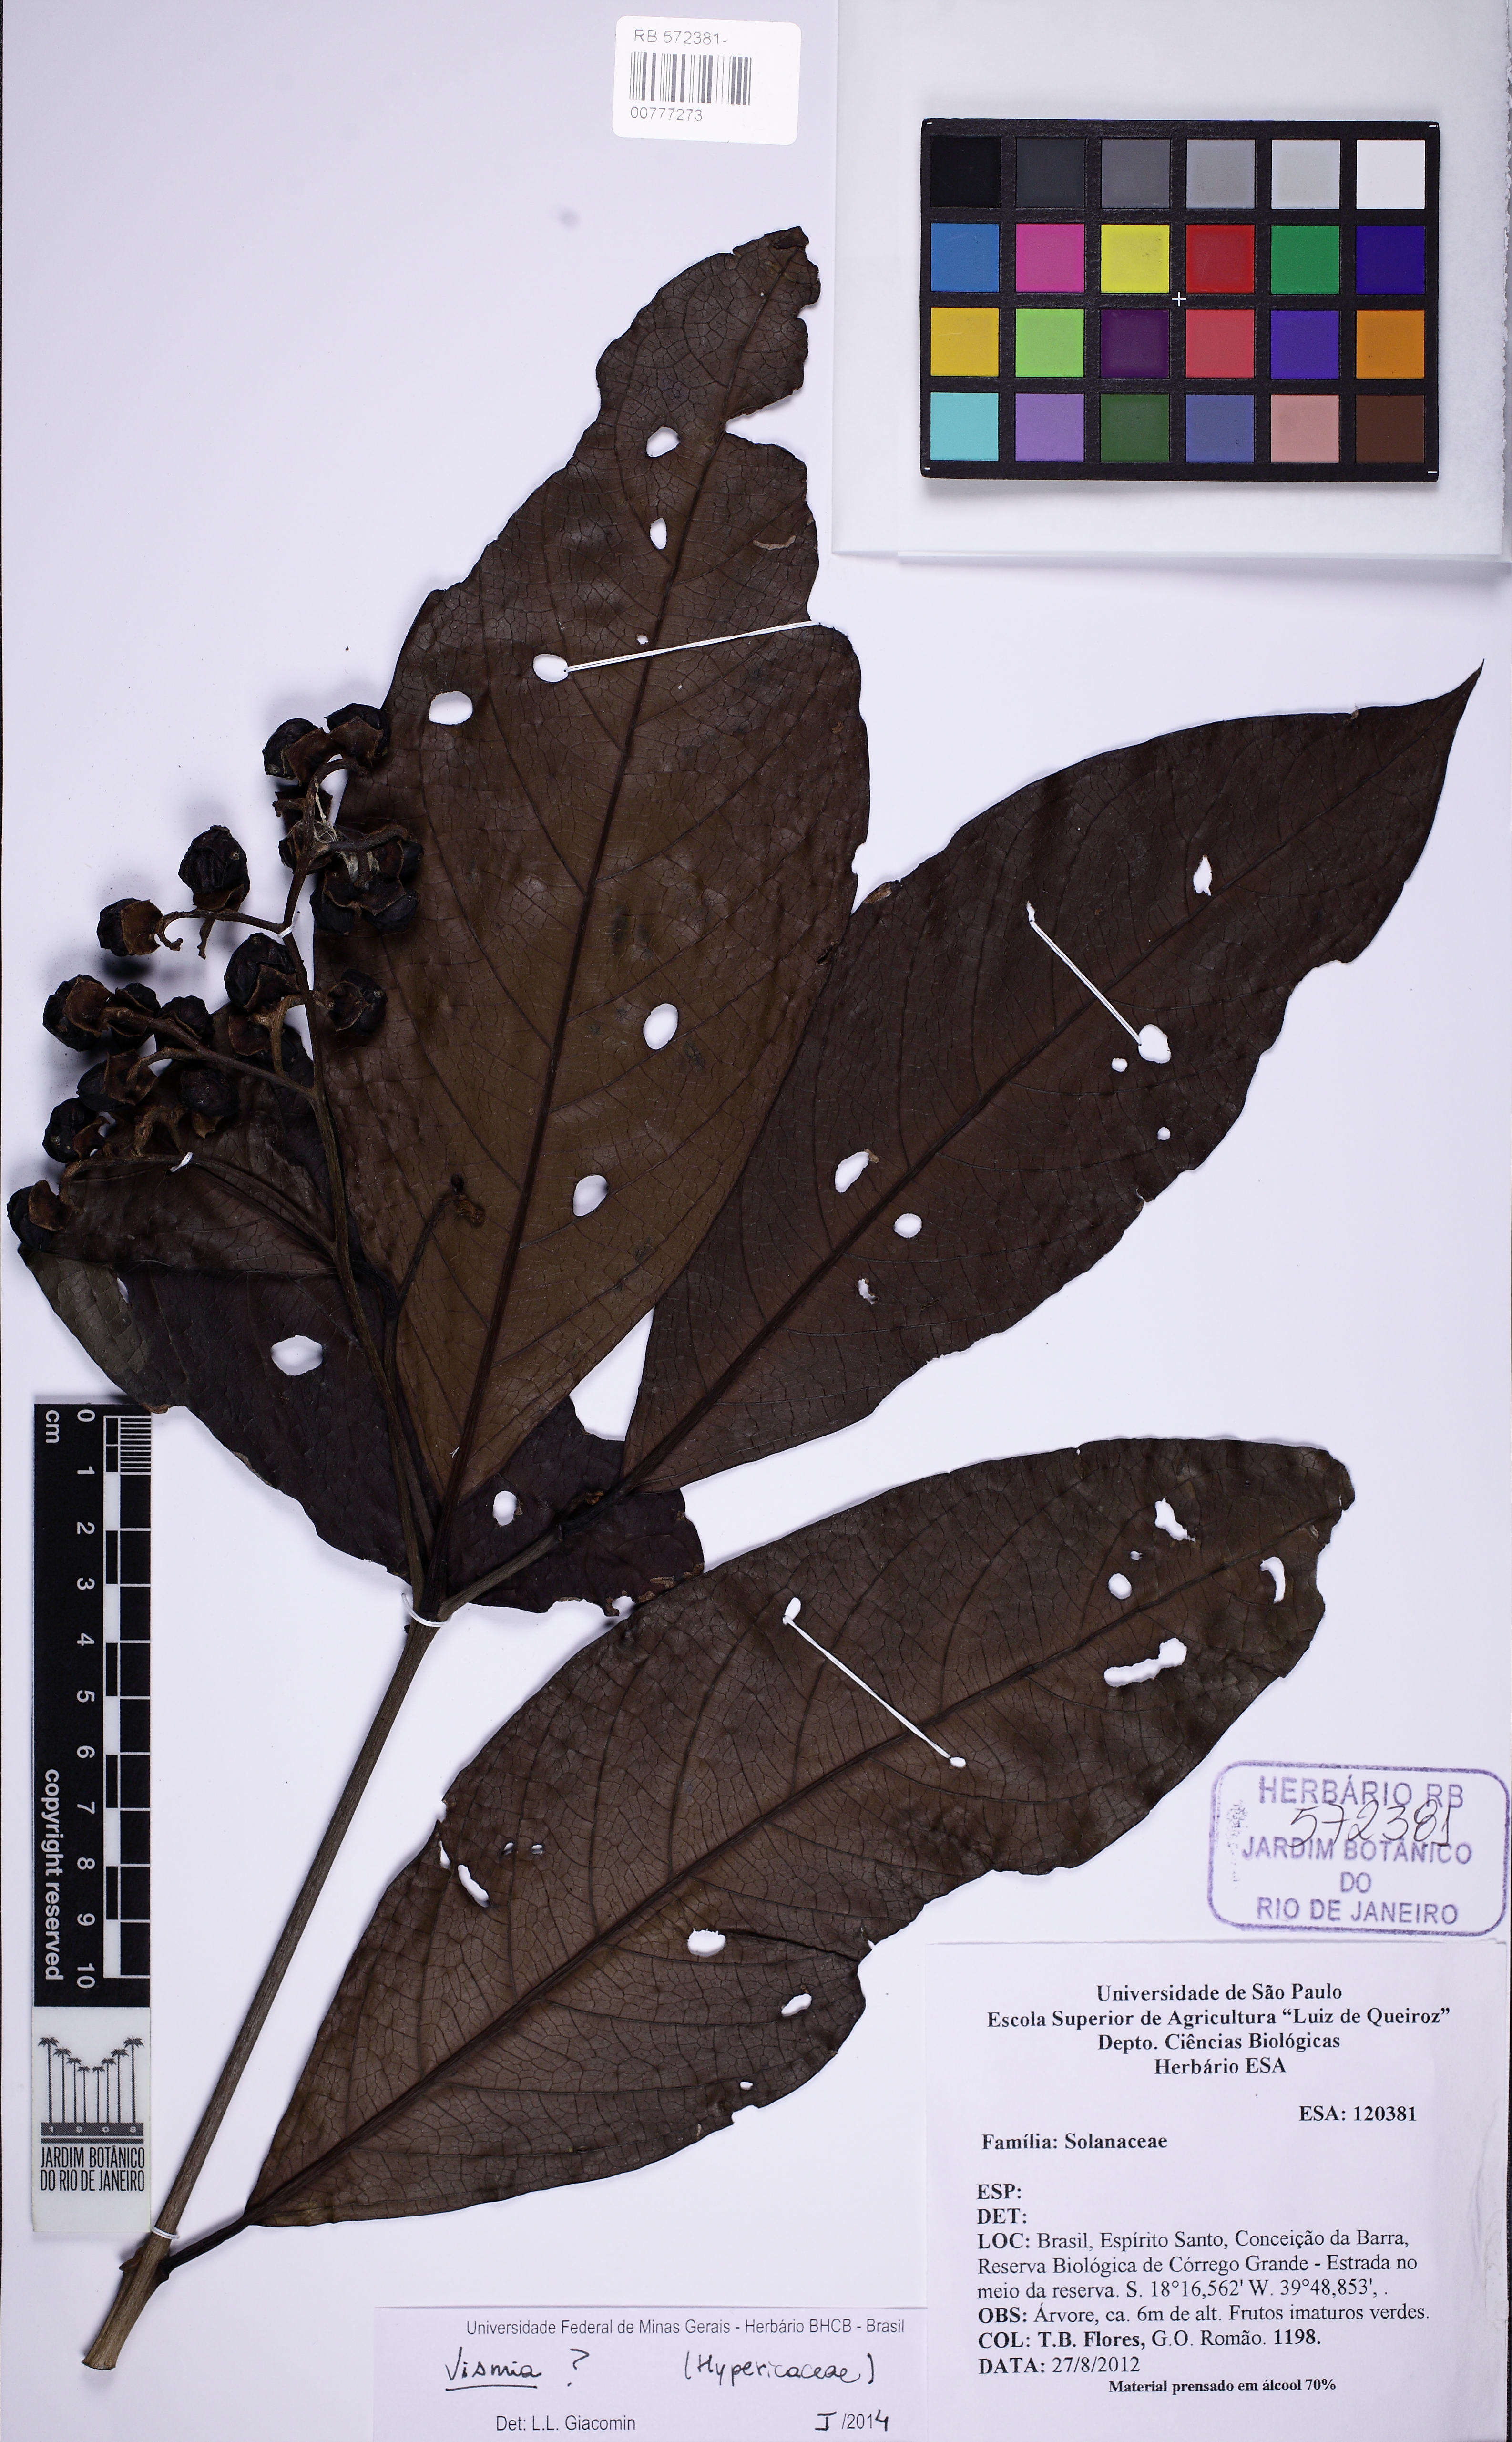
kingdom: Plantae
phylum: Tracheophyta
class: Magnoliopsida
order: Malpighiales
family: Hypericaceae
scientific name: Hypericaceae
